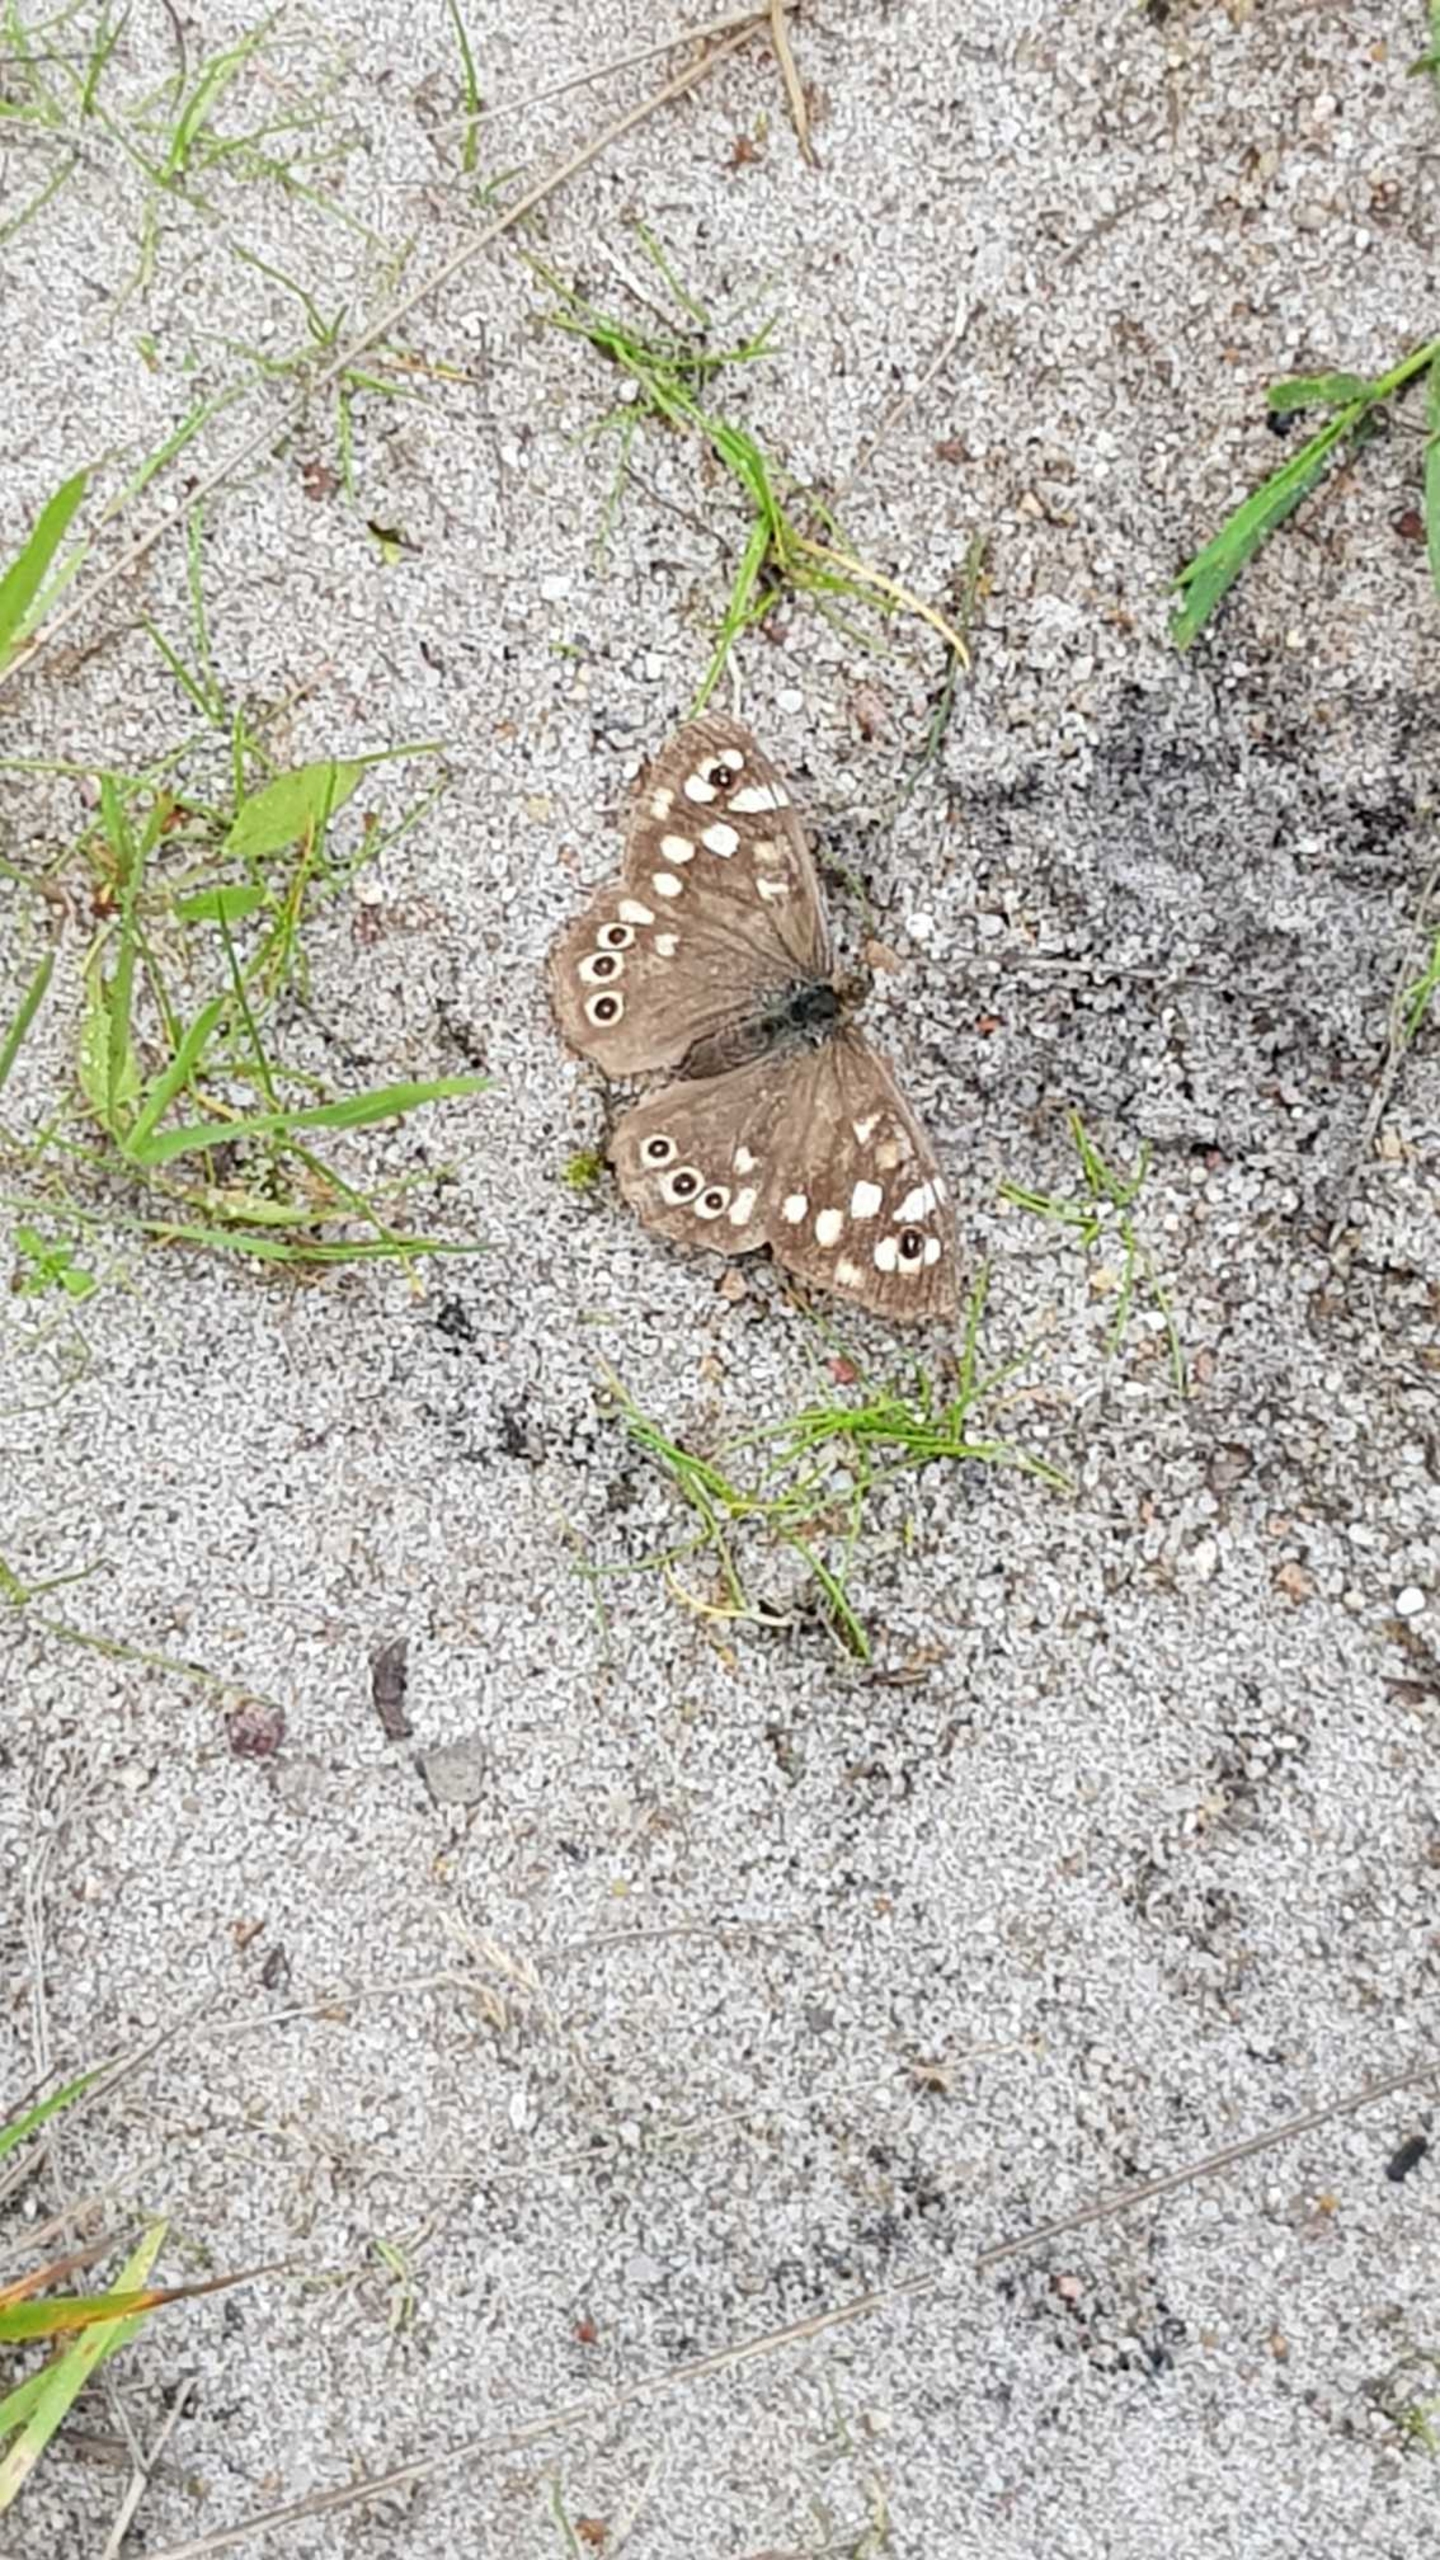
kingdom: Animalia
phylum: Arthropoda
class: Insecta
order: Lepidoptera
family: Nymphalidae
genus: Pararge
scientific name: Pararge aegeria
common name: Skovrandøje
